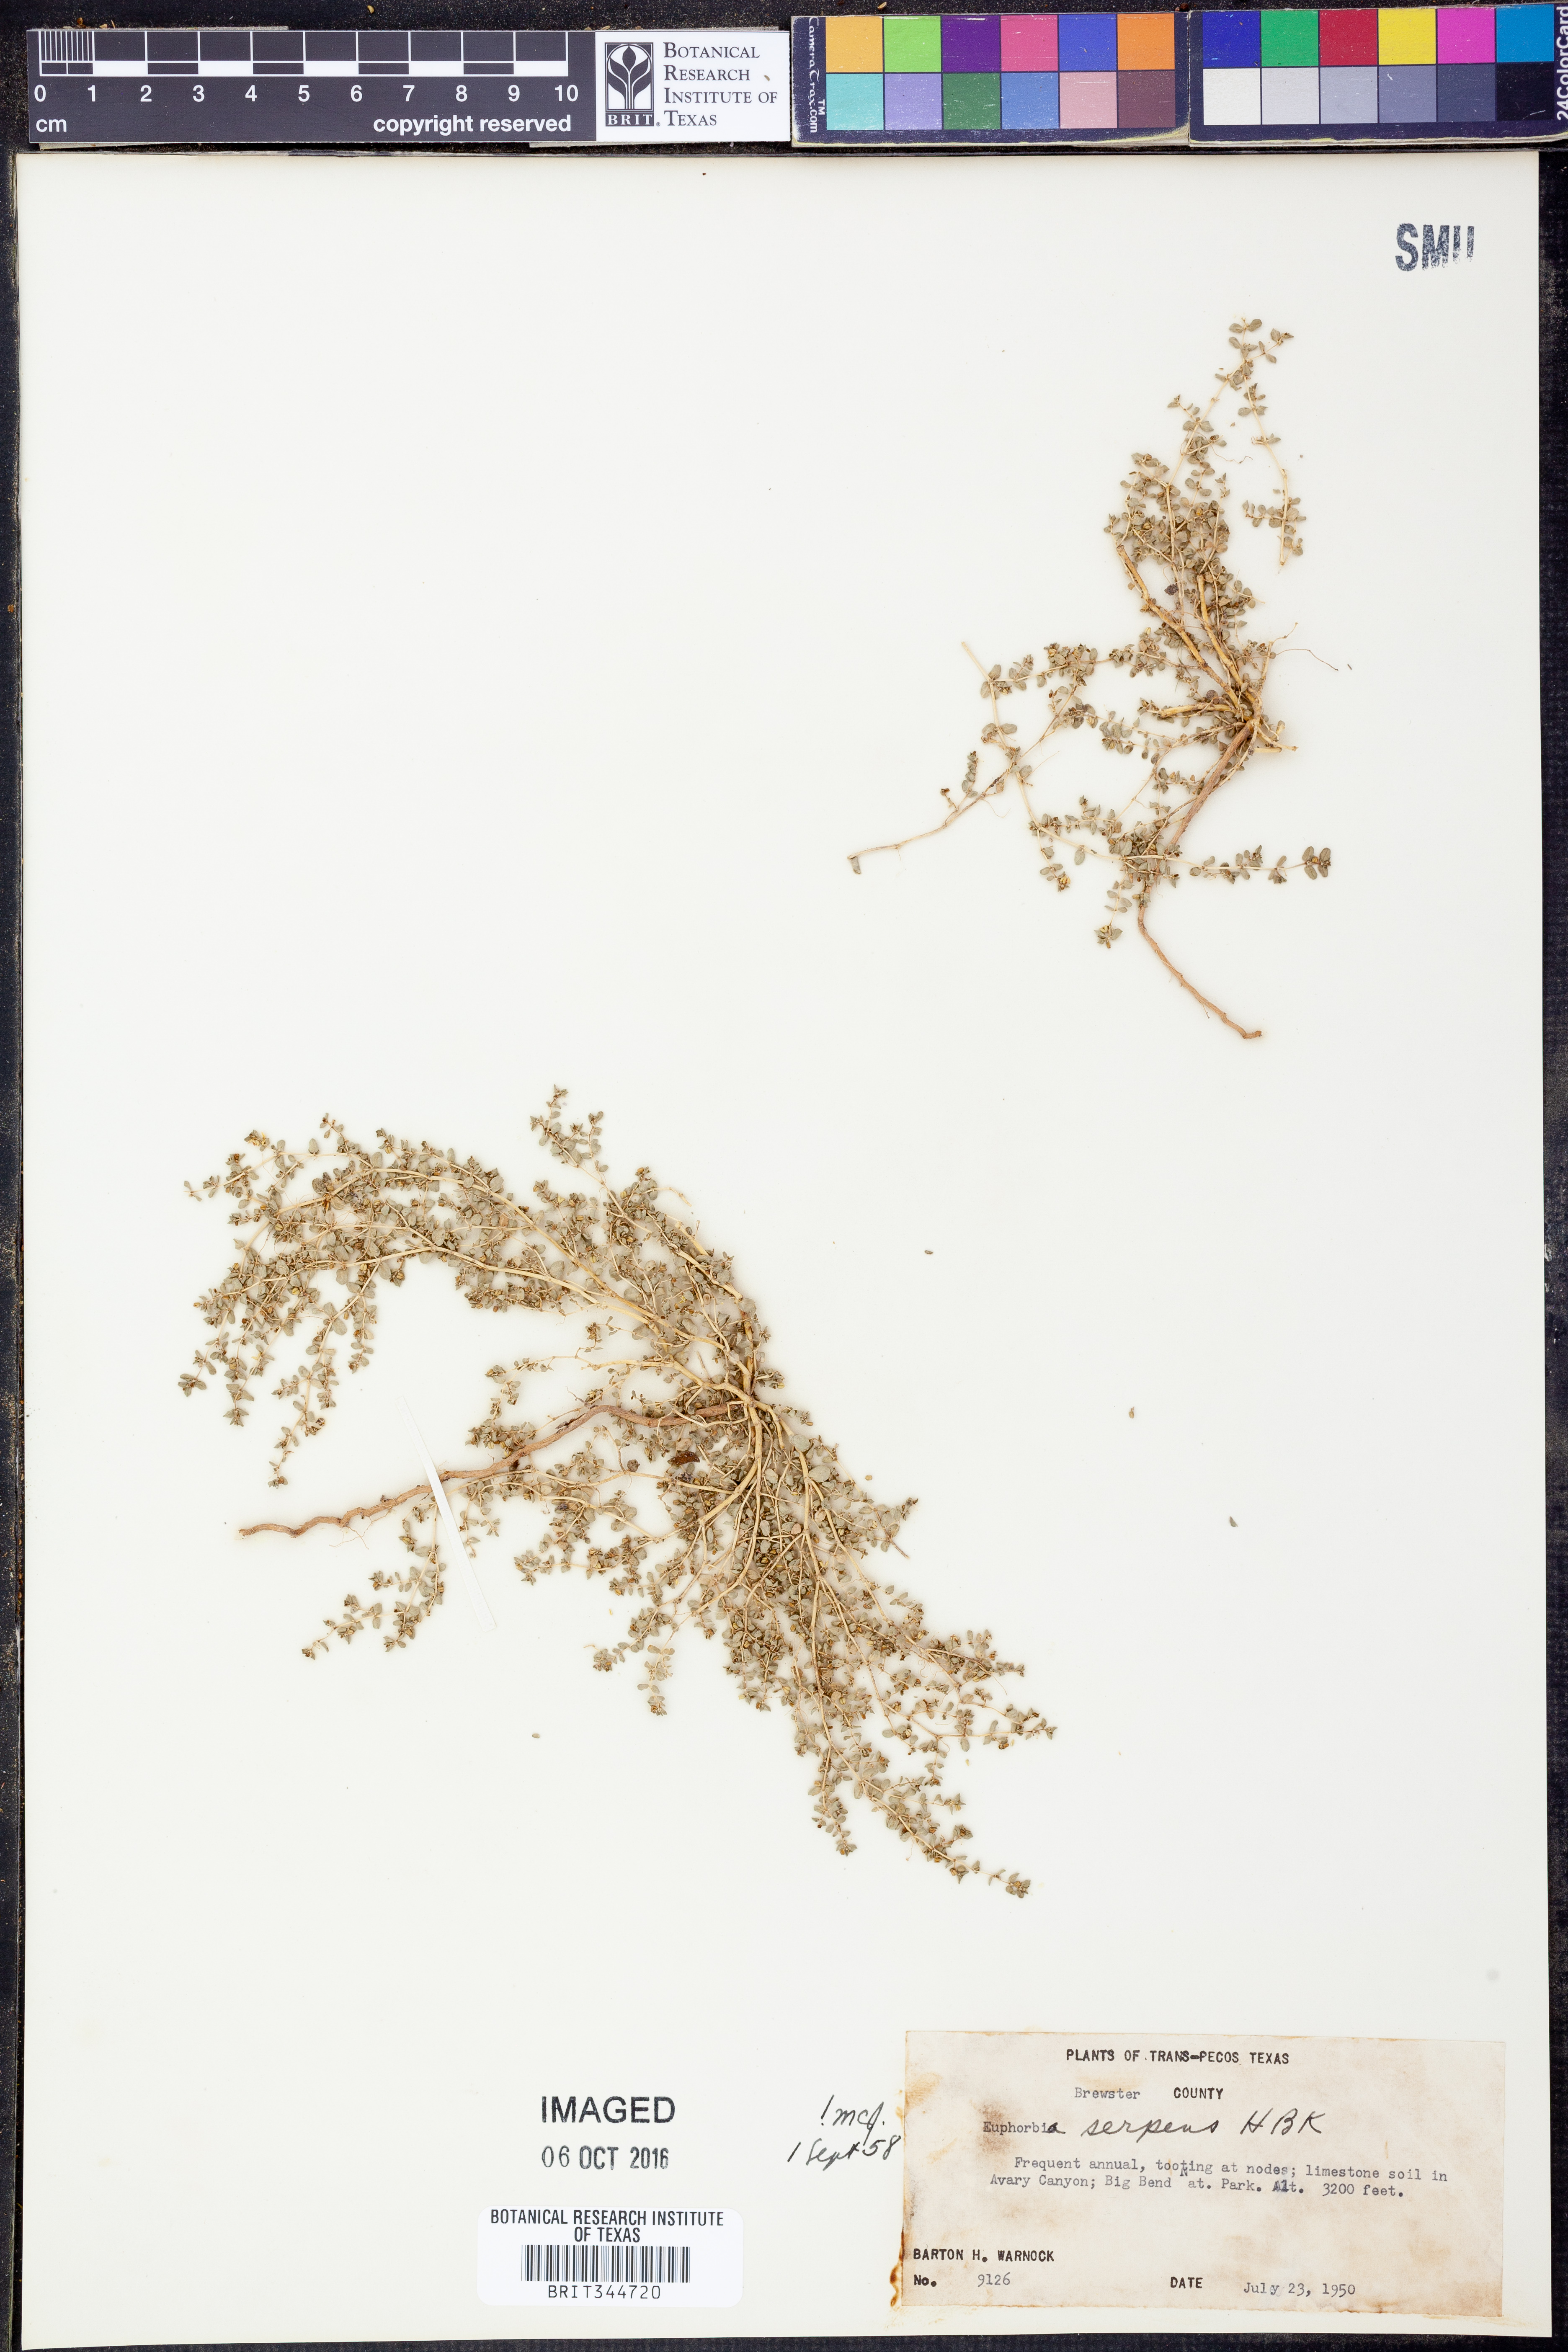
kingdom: Plantae
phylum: Tracheophyta
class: Magnoliopsida
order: Malpighiales
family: Euphorbiaceae
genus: Euphorbia
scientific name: Euphorbia serpens
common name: Matted sandmat
